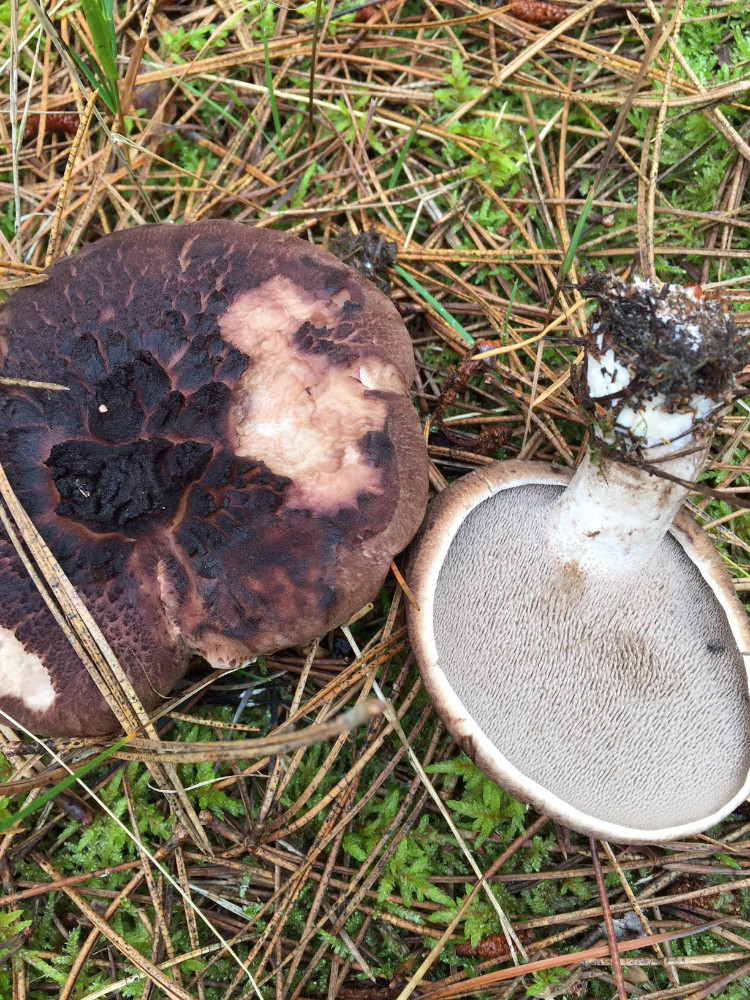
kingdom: Fungi
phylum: Basidiomycota
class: Agaricomycetes
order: Thelephorales
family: Bankeraceae
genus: Sarcodon
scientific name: Sarcodon squamosus
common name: småskællet kødpigsvamp
